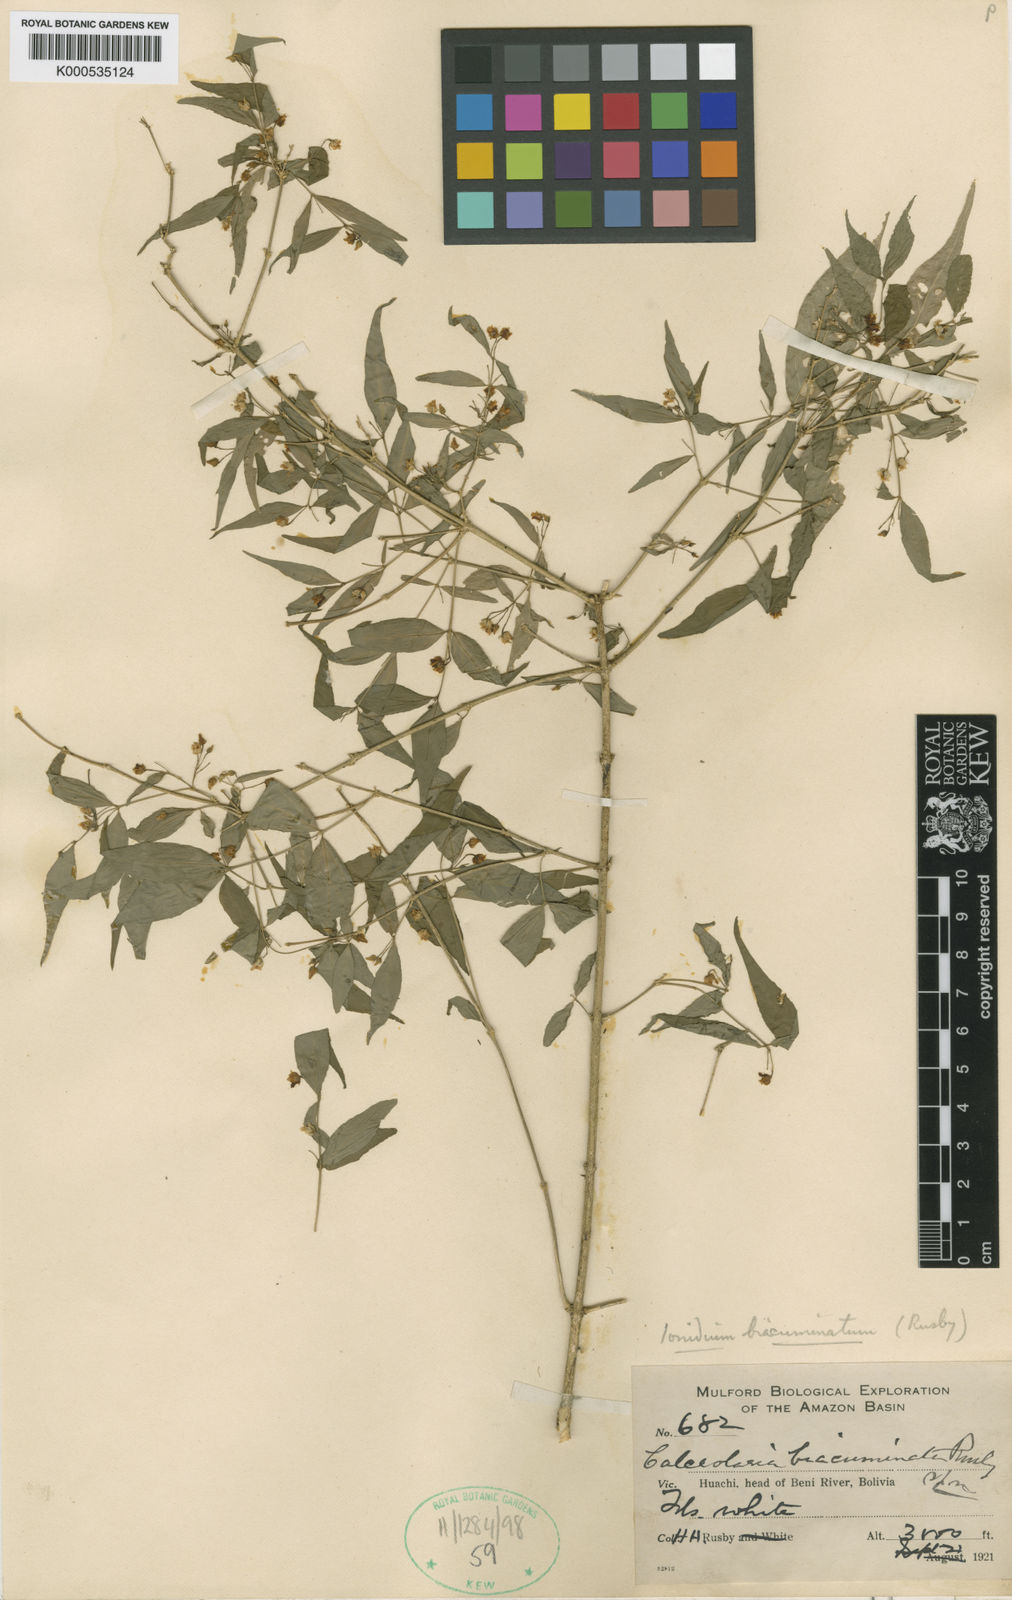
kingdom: Plantae
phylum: Tracheophyta
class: Magnoliopsida
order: Malpighiales
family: Violaceae
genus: Pombalia
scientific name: Pombalia sprucei
